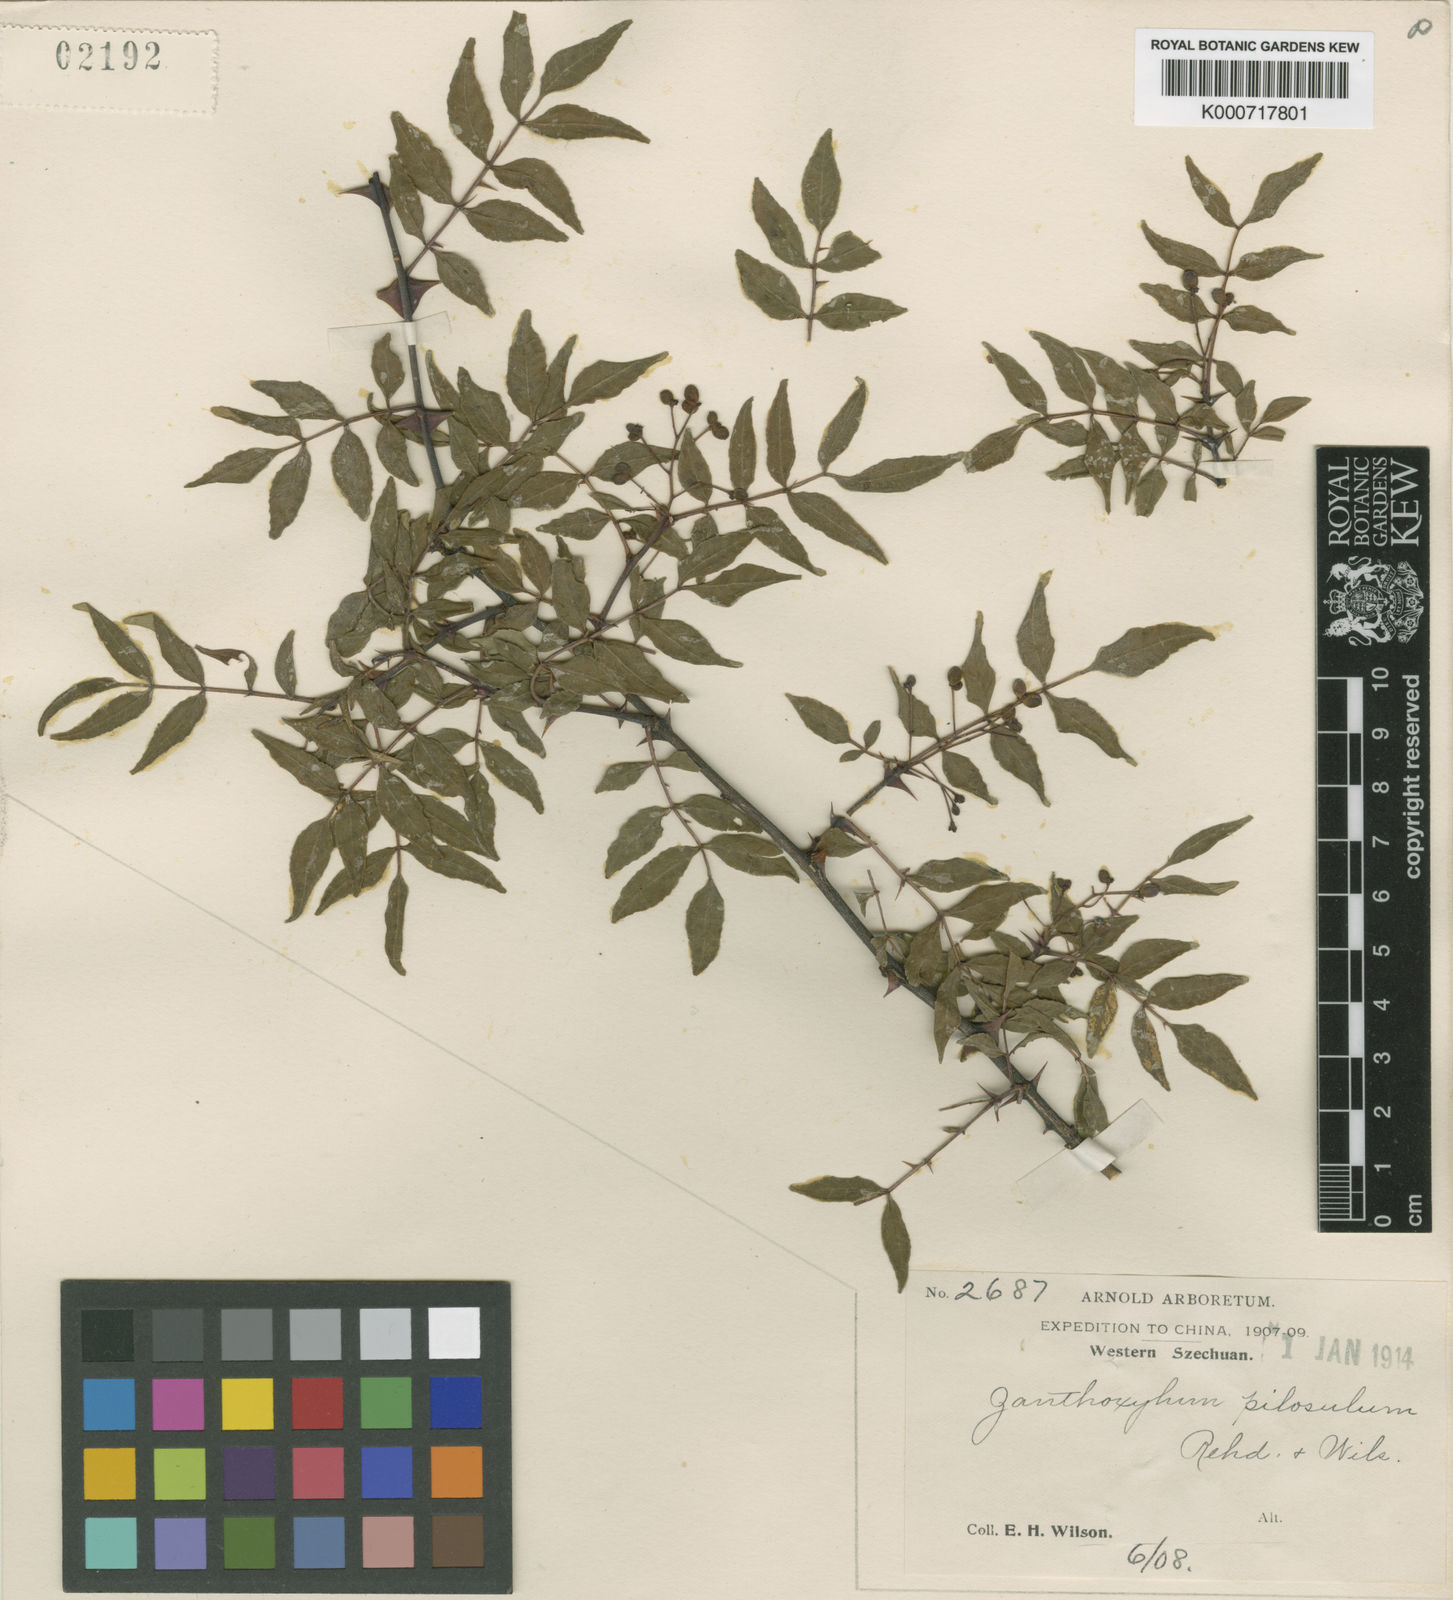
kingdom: Plantae
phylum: Tracheophyta
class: Magnoliopsida
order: Sapindales
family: Rutaceae
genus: Zanthoxylum
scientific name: Zanthoxylum pilosulum
